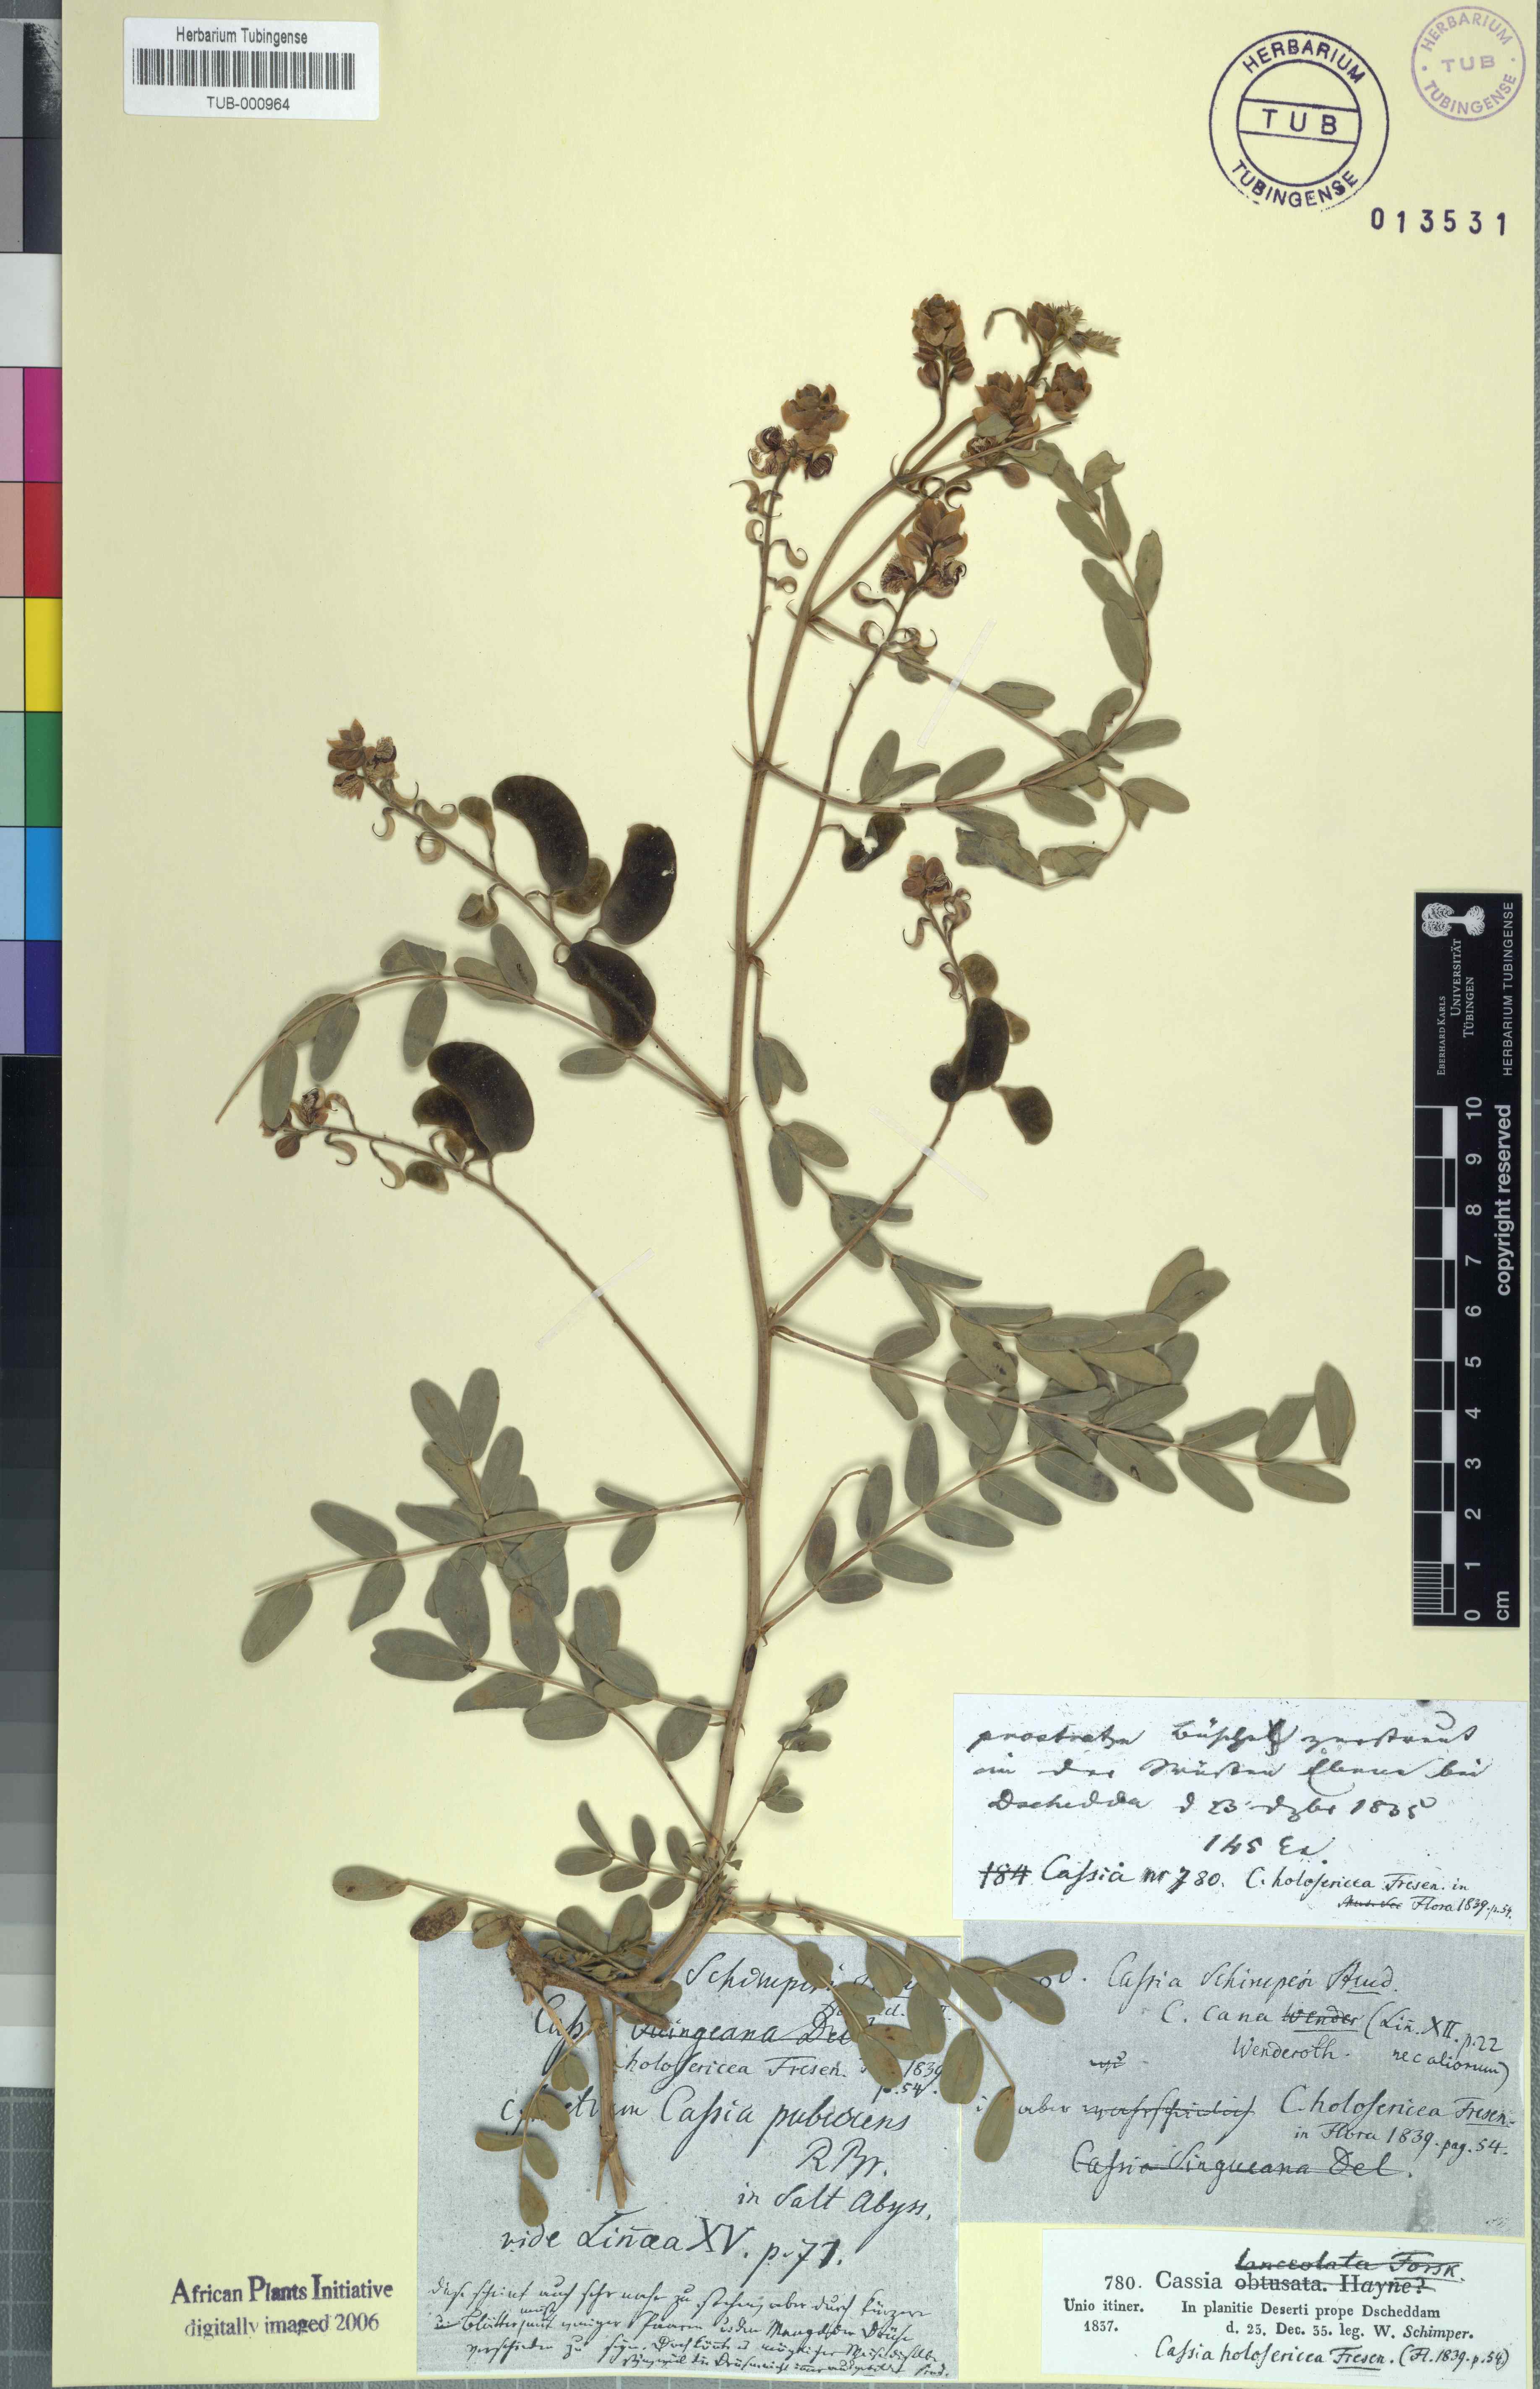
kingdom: Plantae
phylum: Tracheophyta
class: Magnoliopsida
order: Fabales
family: Fabaceae
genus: Senna
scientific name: Senna holosericea
